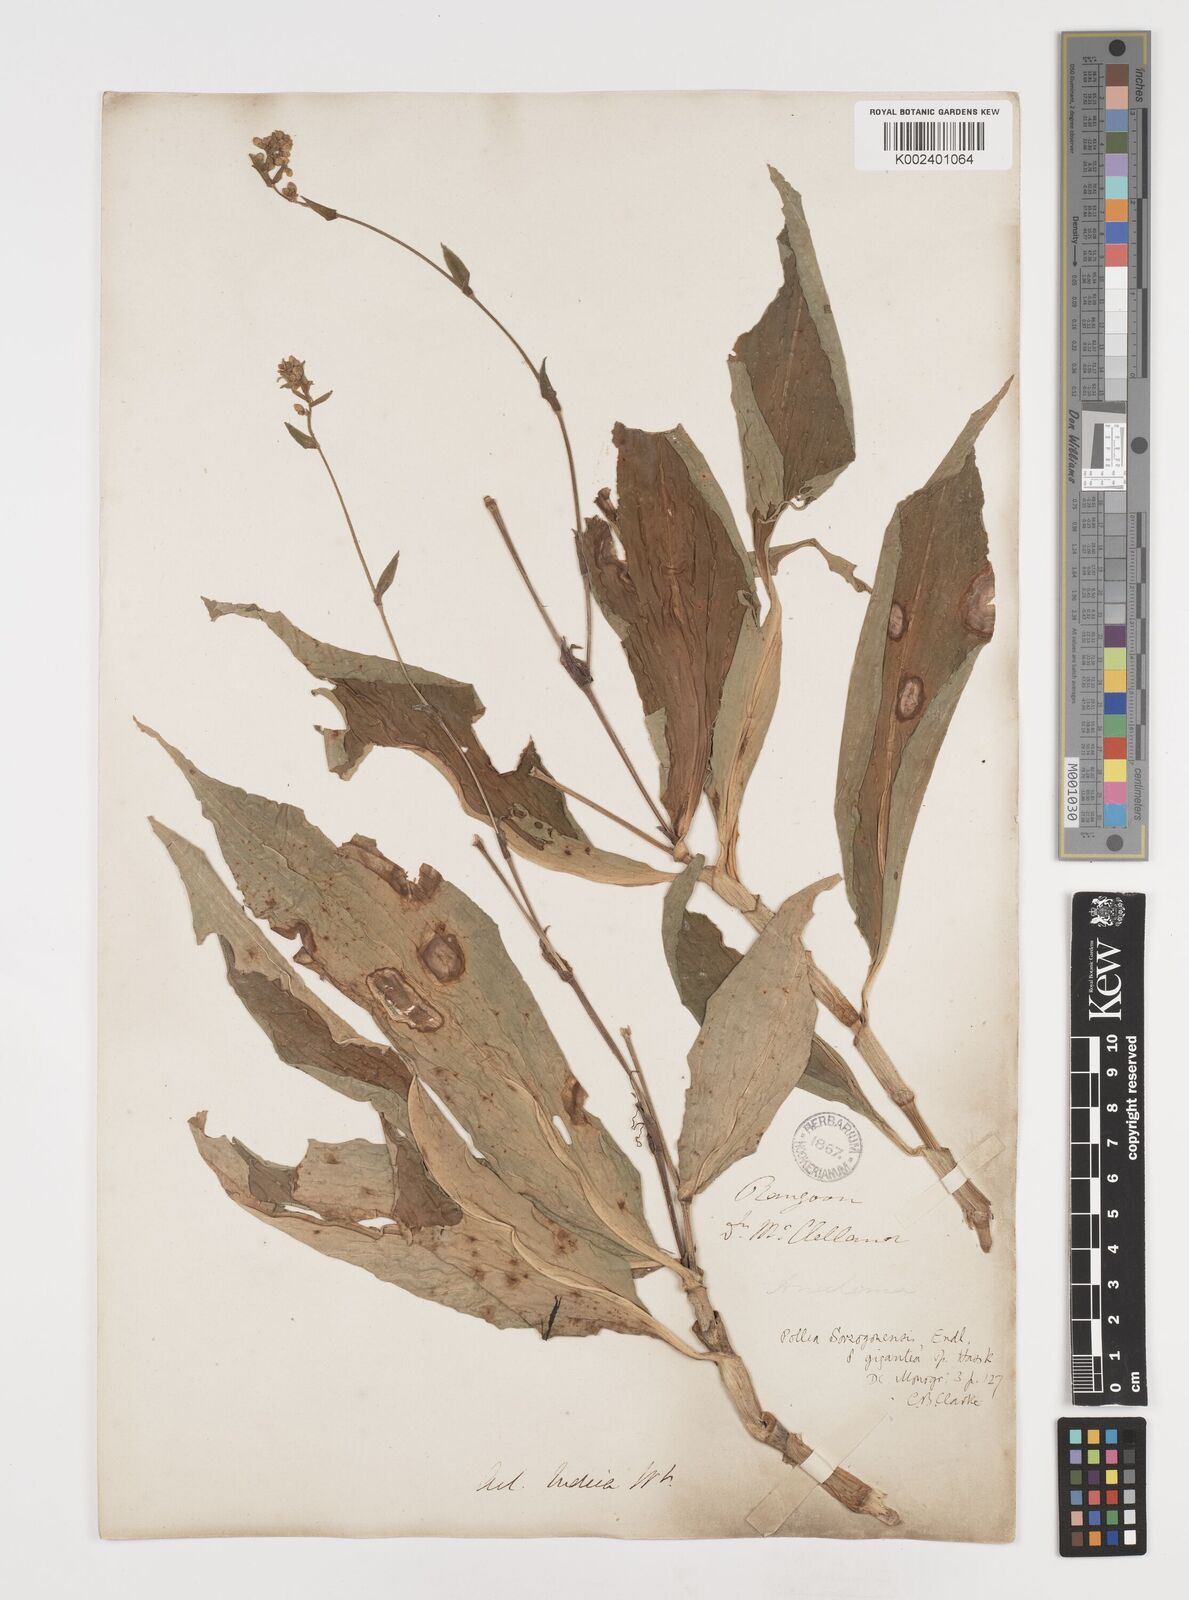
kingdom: Plantae
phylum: Tracheophyta
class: Liliopsida
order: Commelinales
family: Commelinaceae
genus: Pollia
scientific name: Pollia secundiflora
